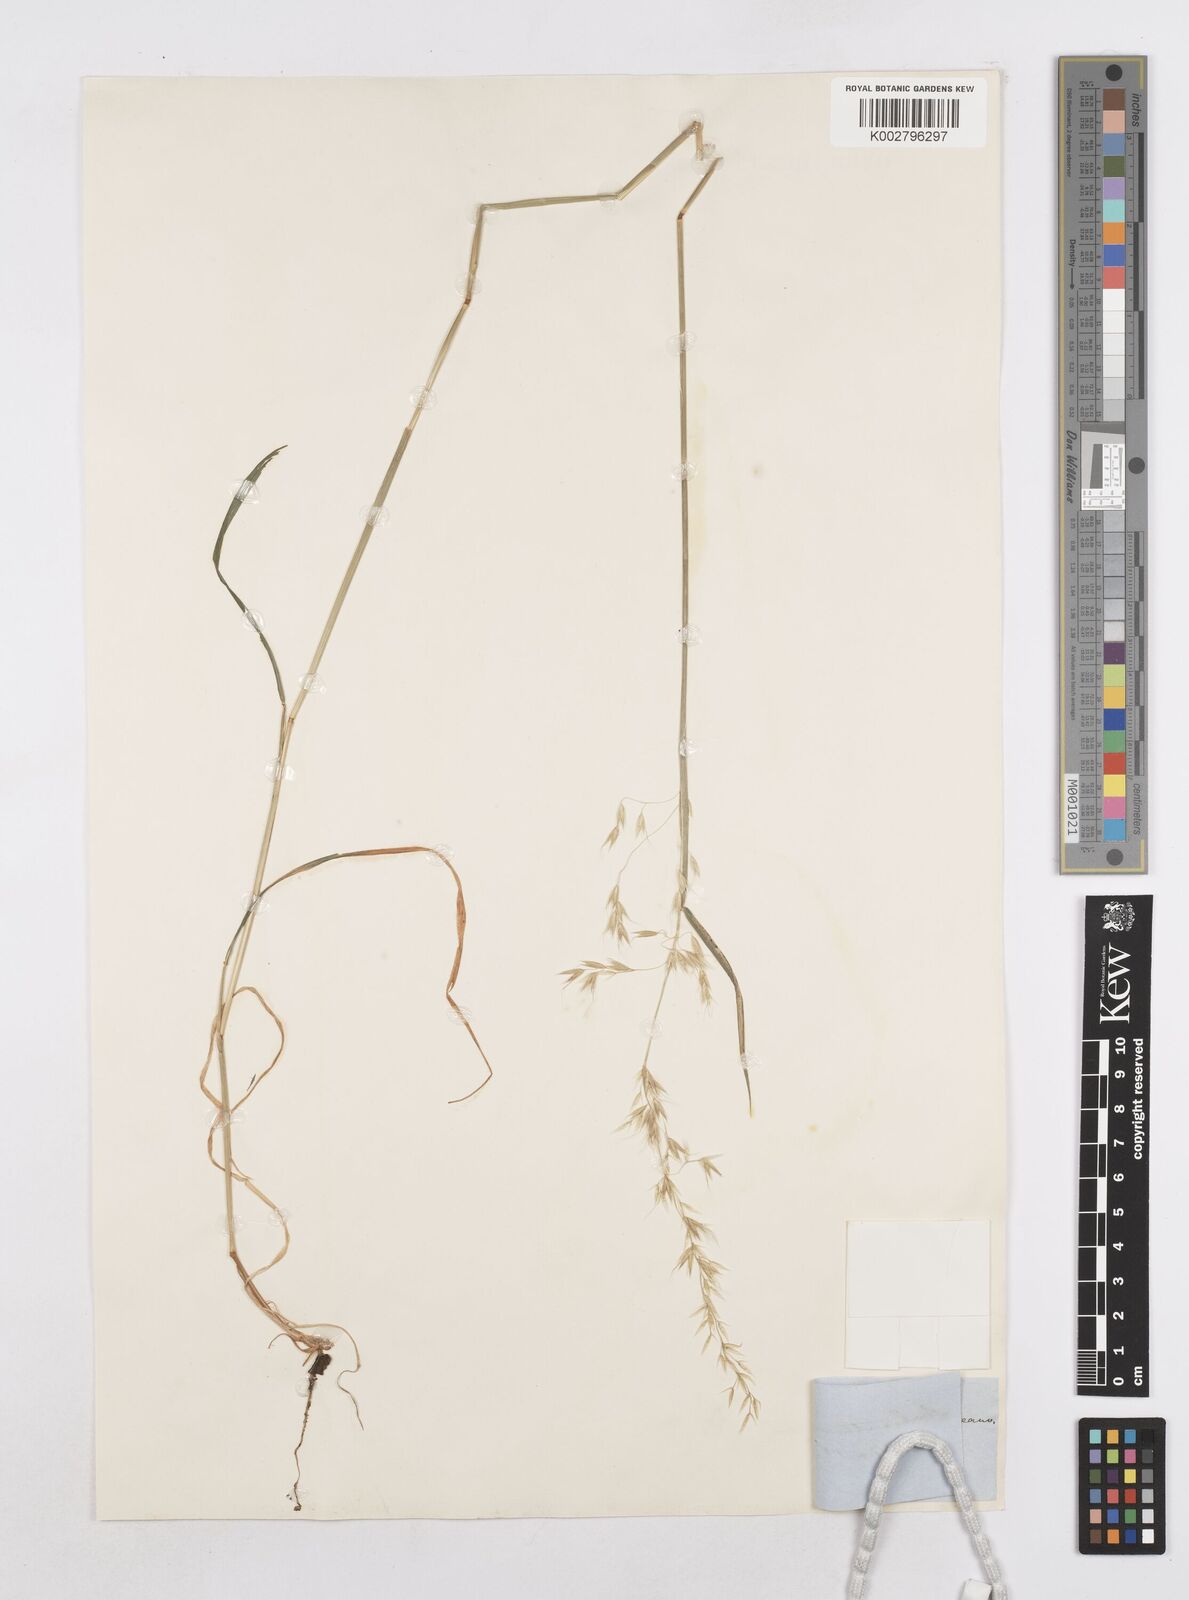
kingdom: Plantae
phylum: Tracheophyta
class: Liliopsida
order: Poales
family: Poaceae
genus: Arrhenatherum
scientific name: Arrhenatherum elatius
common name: Tall oatgrass
